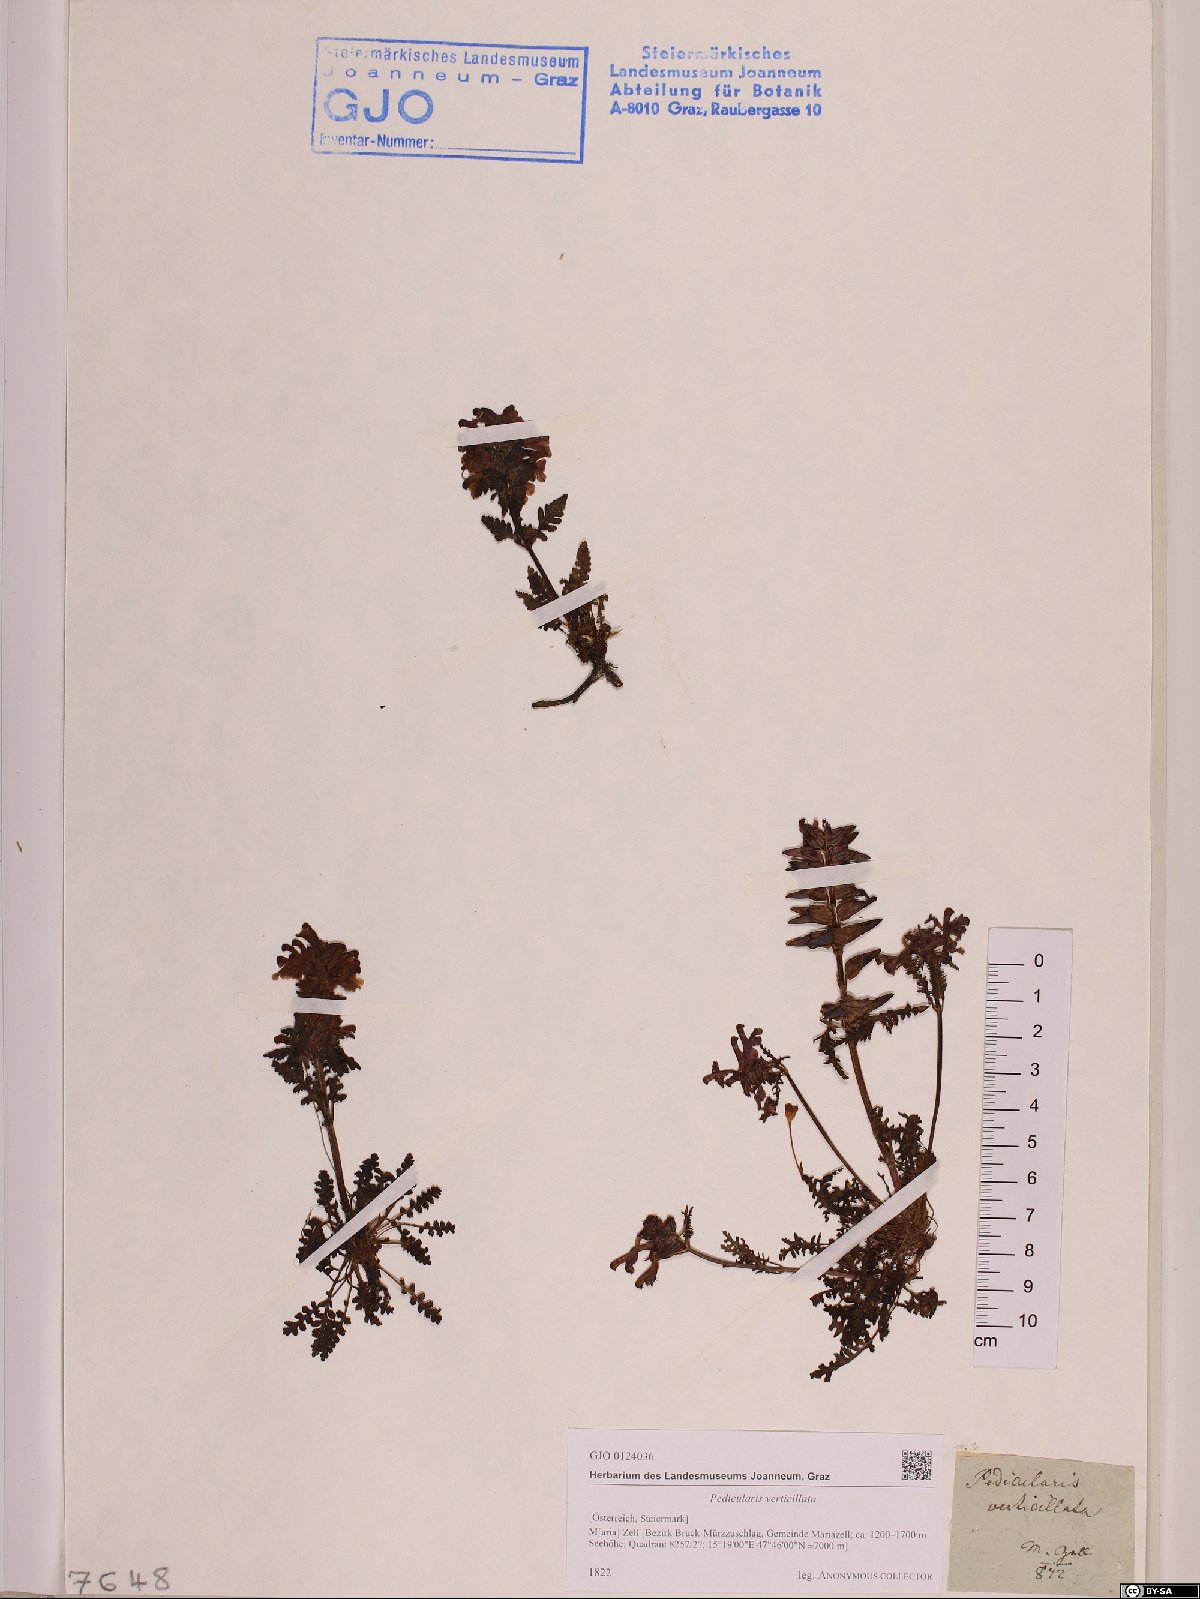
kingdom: Plantae
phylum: Tracheophyta
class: Magnoliopsida
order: Lamiales
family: Orobanchaceae
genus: Pedicularis
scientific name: Pedicularis verticillata
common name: Whorled lousewort
